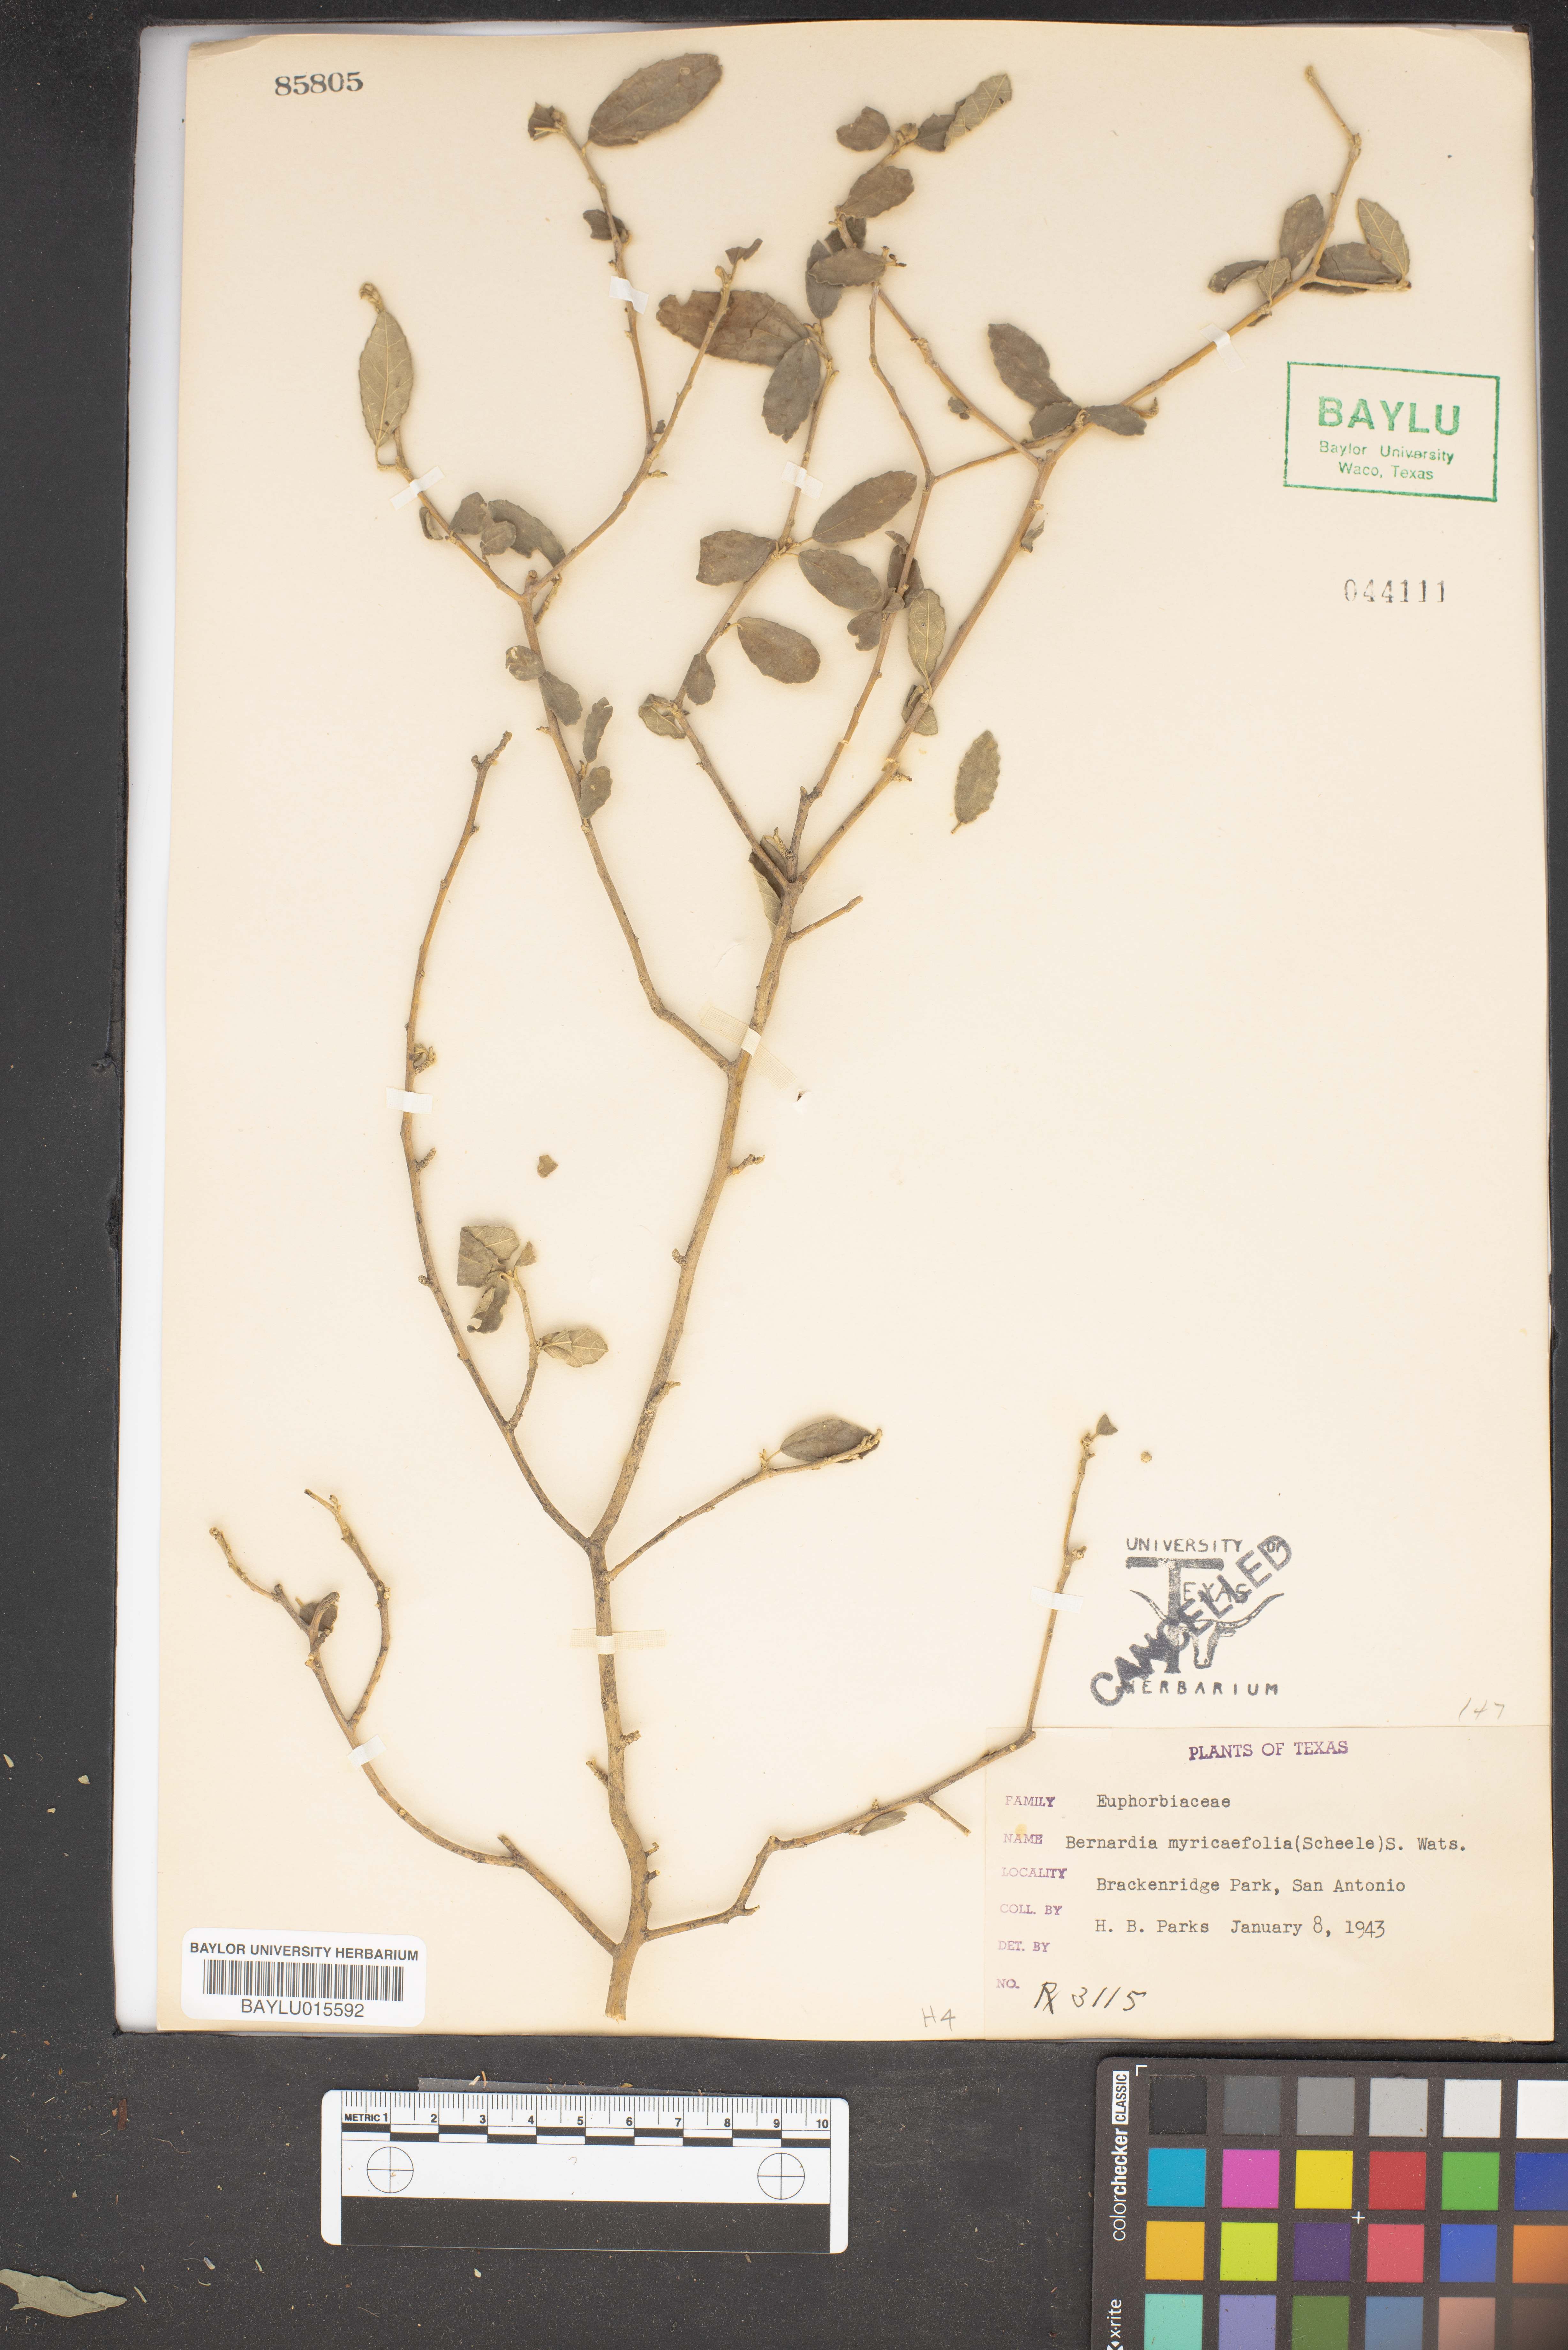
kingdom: Plantae
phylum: Tracheophyta
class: Magnoliopsida
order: Malpighiales
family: Euphorbiaceae
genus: Bernardia
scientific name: Bernardia myricifolia
